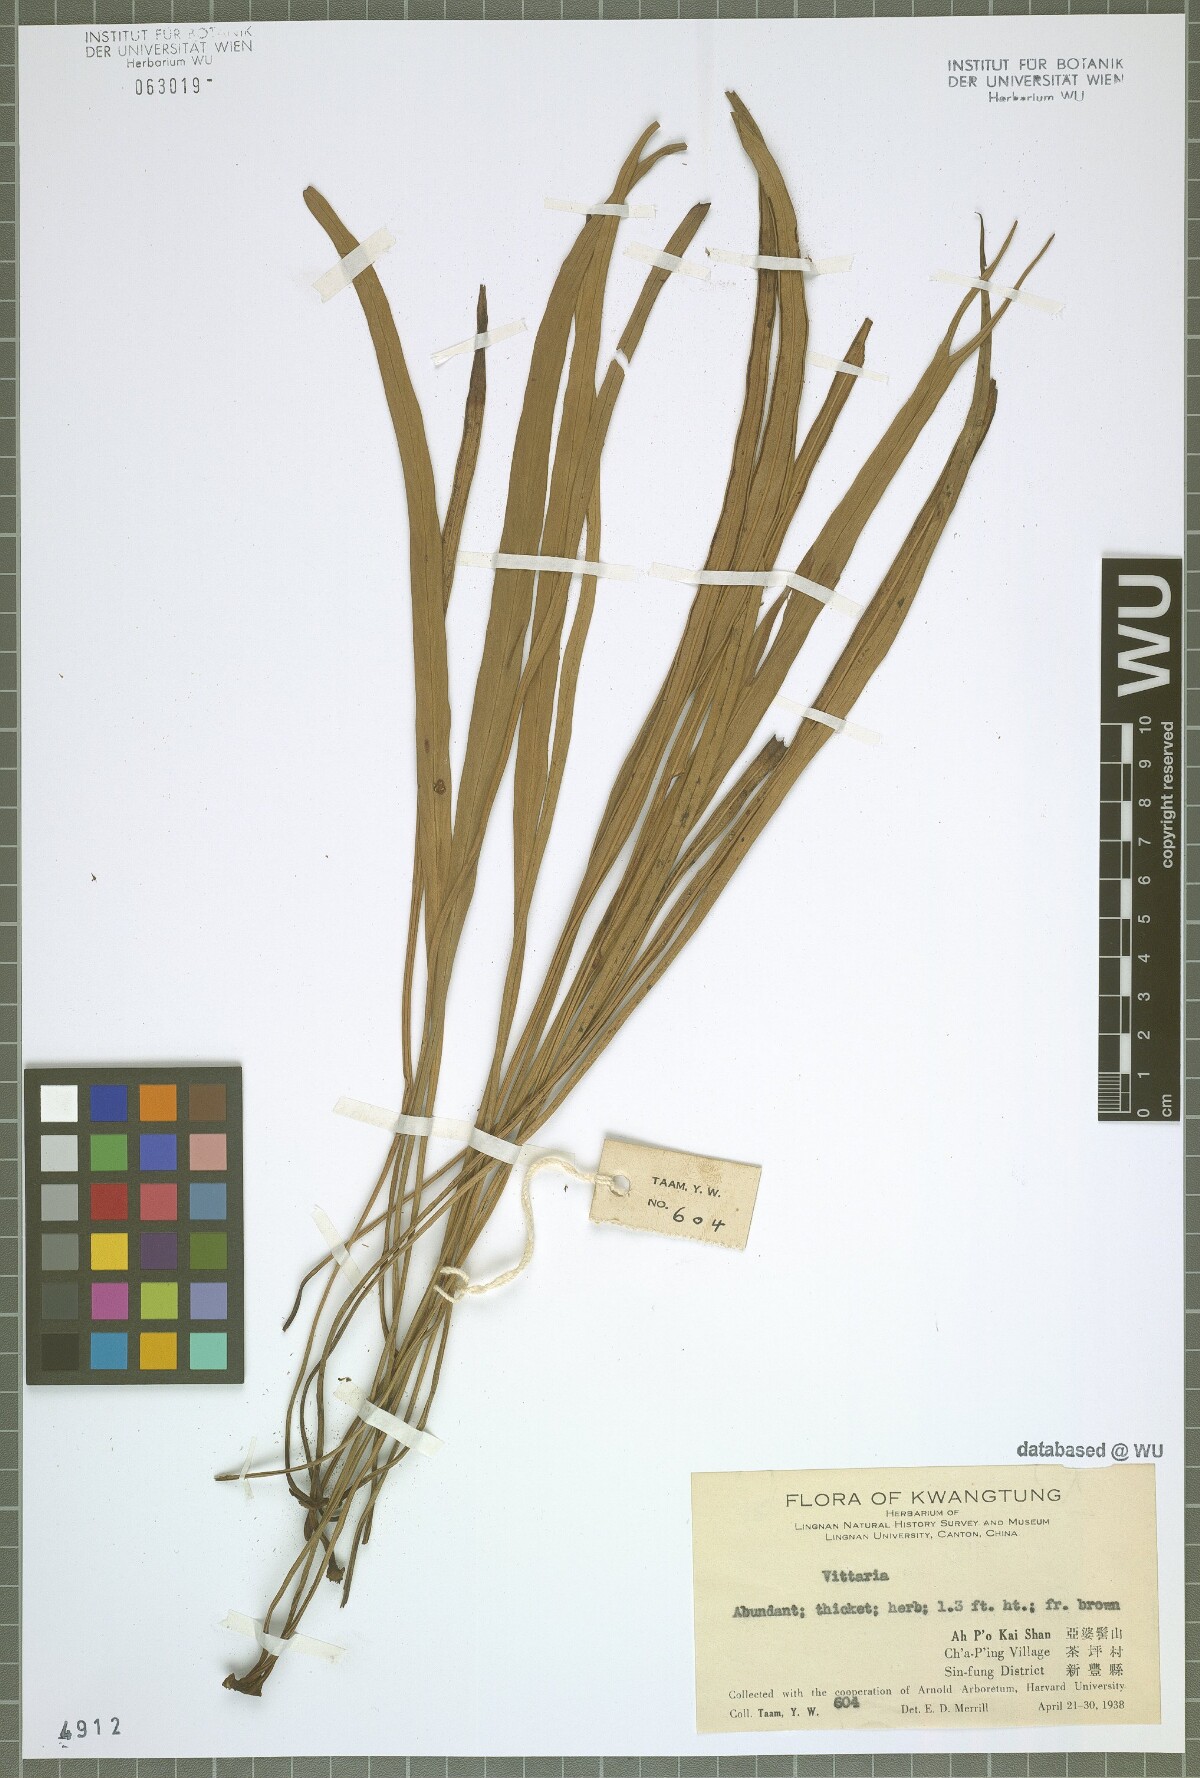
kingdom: Plantae
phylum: Tracheophyta
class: Polypodiopsida
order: Polypodiales
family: Pteridaceae
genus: Vittaria
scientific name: Vittaria
